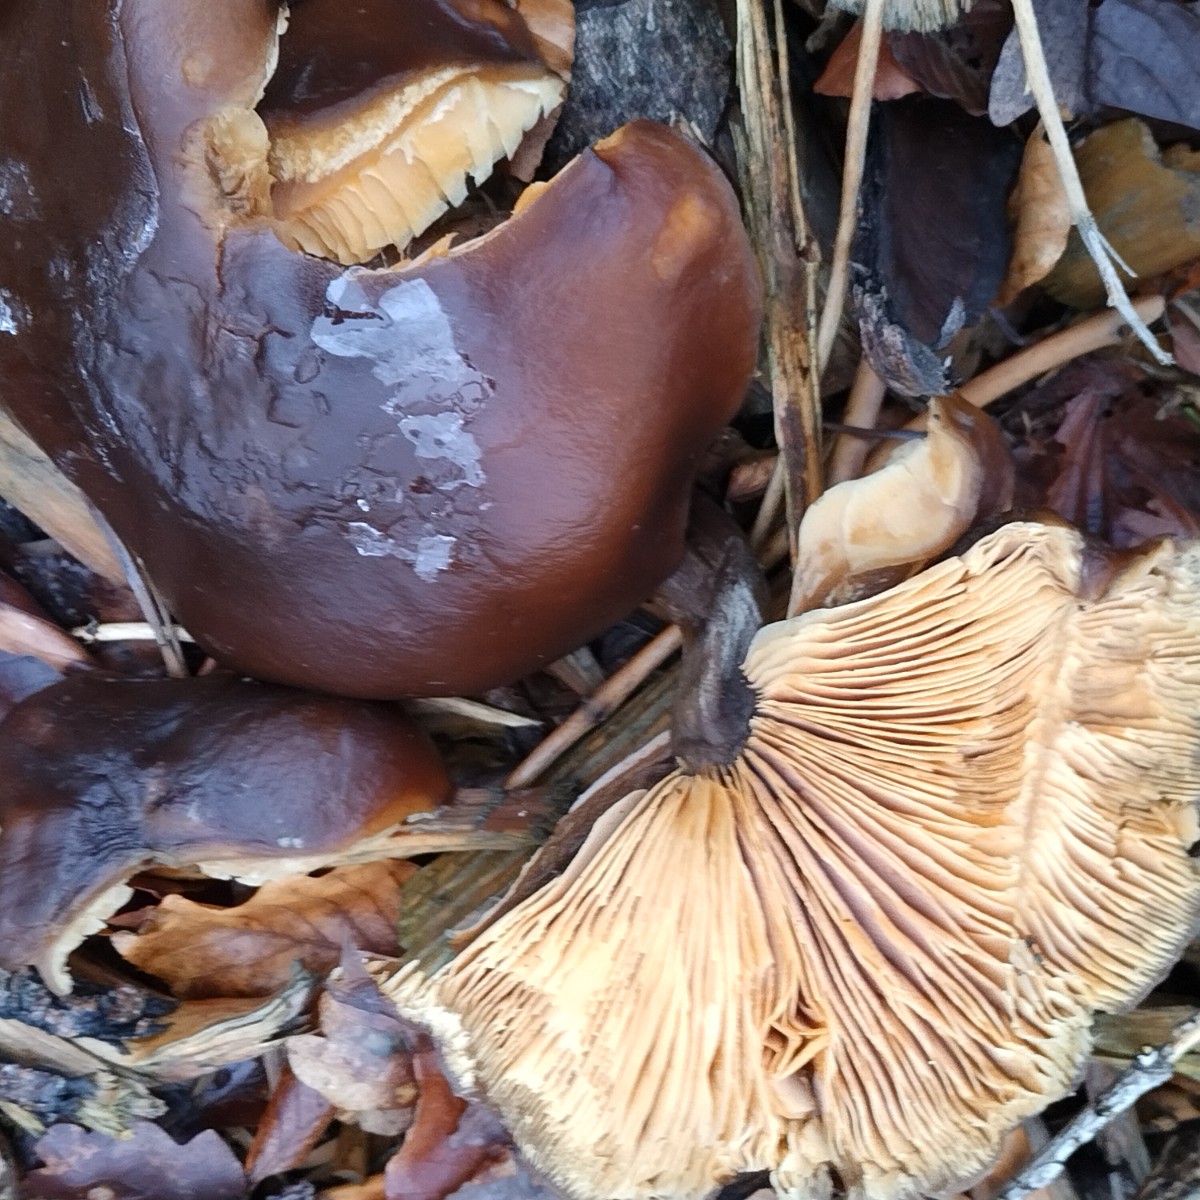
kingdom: Fungi
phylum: Basidiomycota
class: Agaricomycetes
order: Agaricales
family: Tricholomataceae
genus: Melanoleuca
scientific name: Melanoleuca cognata
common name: gyldengrå munkehat
